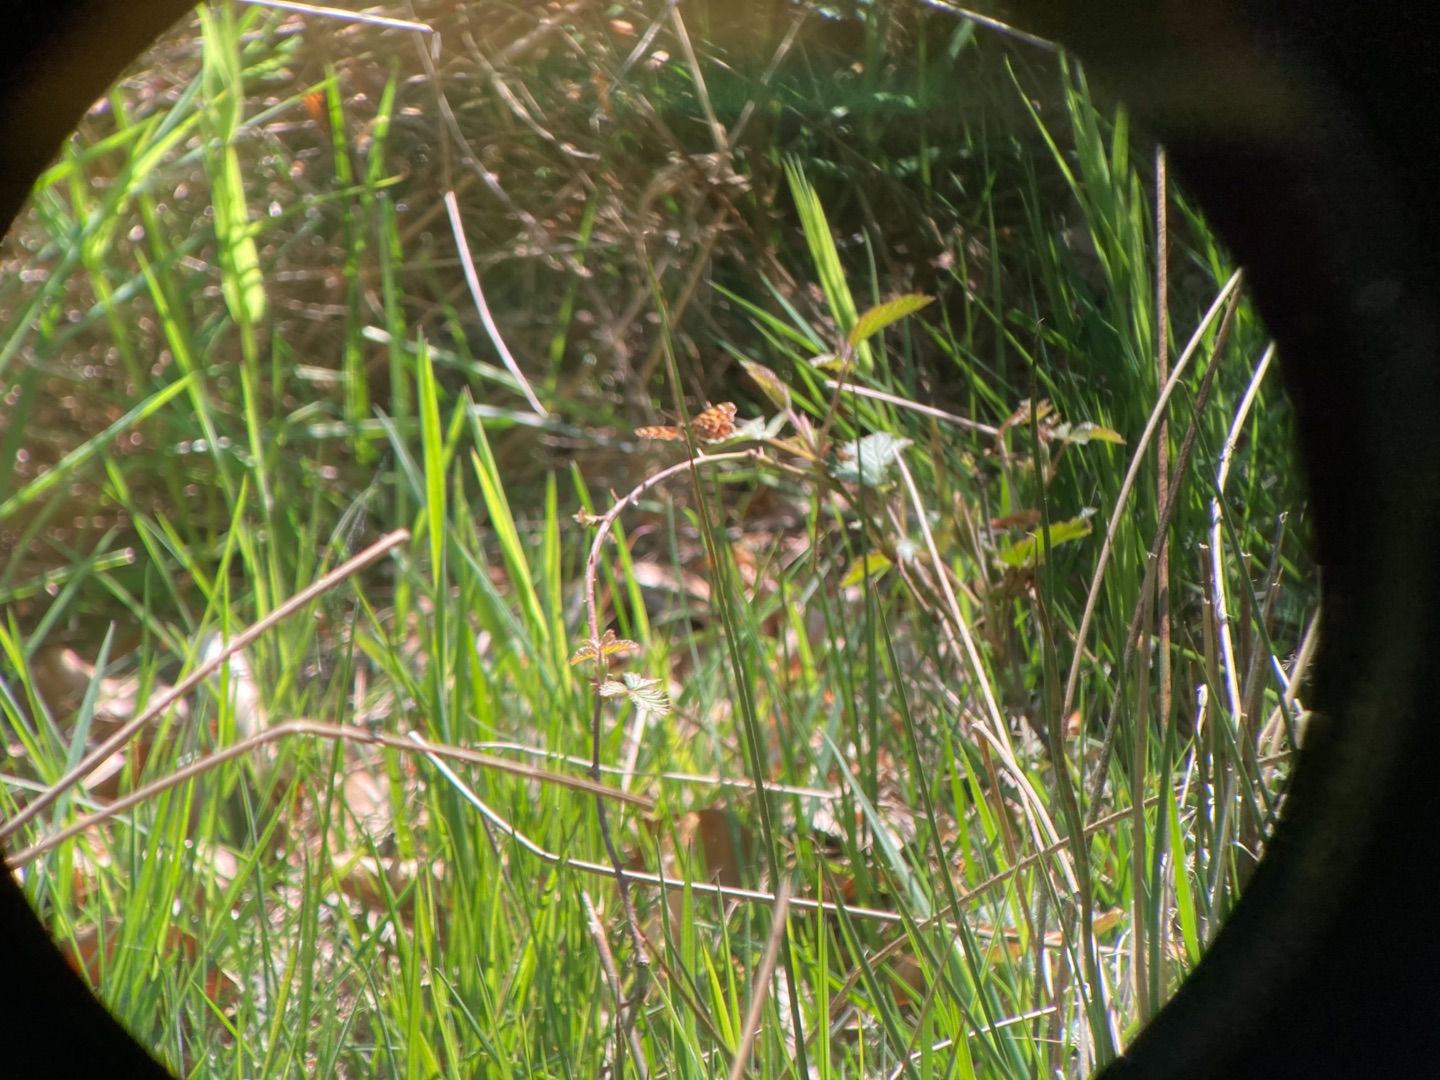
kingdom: Animalia
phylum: Arthropoda
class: Insecta
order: Lepidoptera
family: Nymphalidae
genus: Araschnia
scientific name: Araschnia levana
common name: Nældesommerfugl
